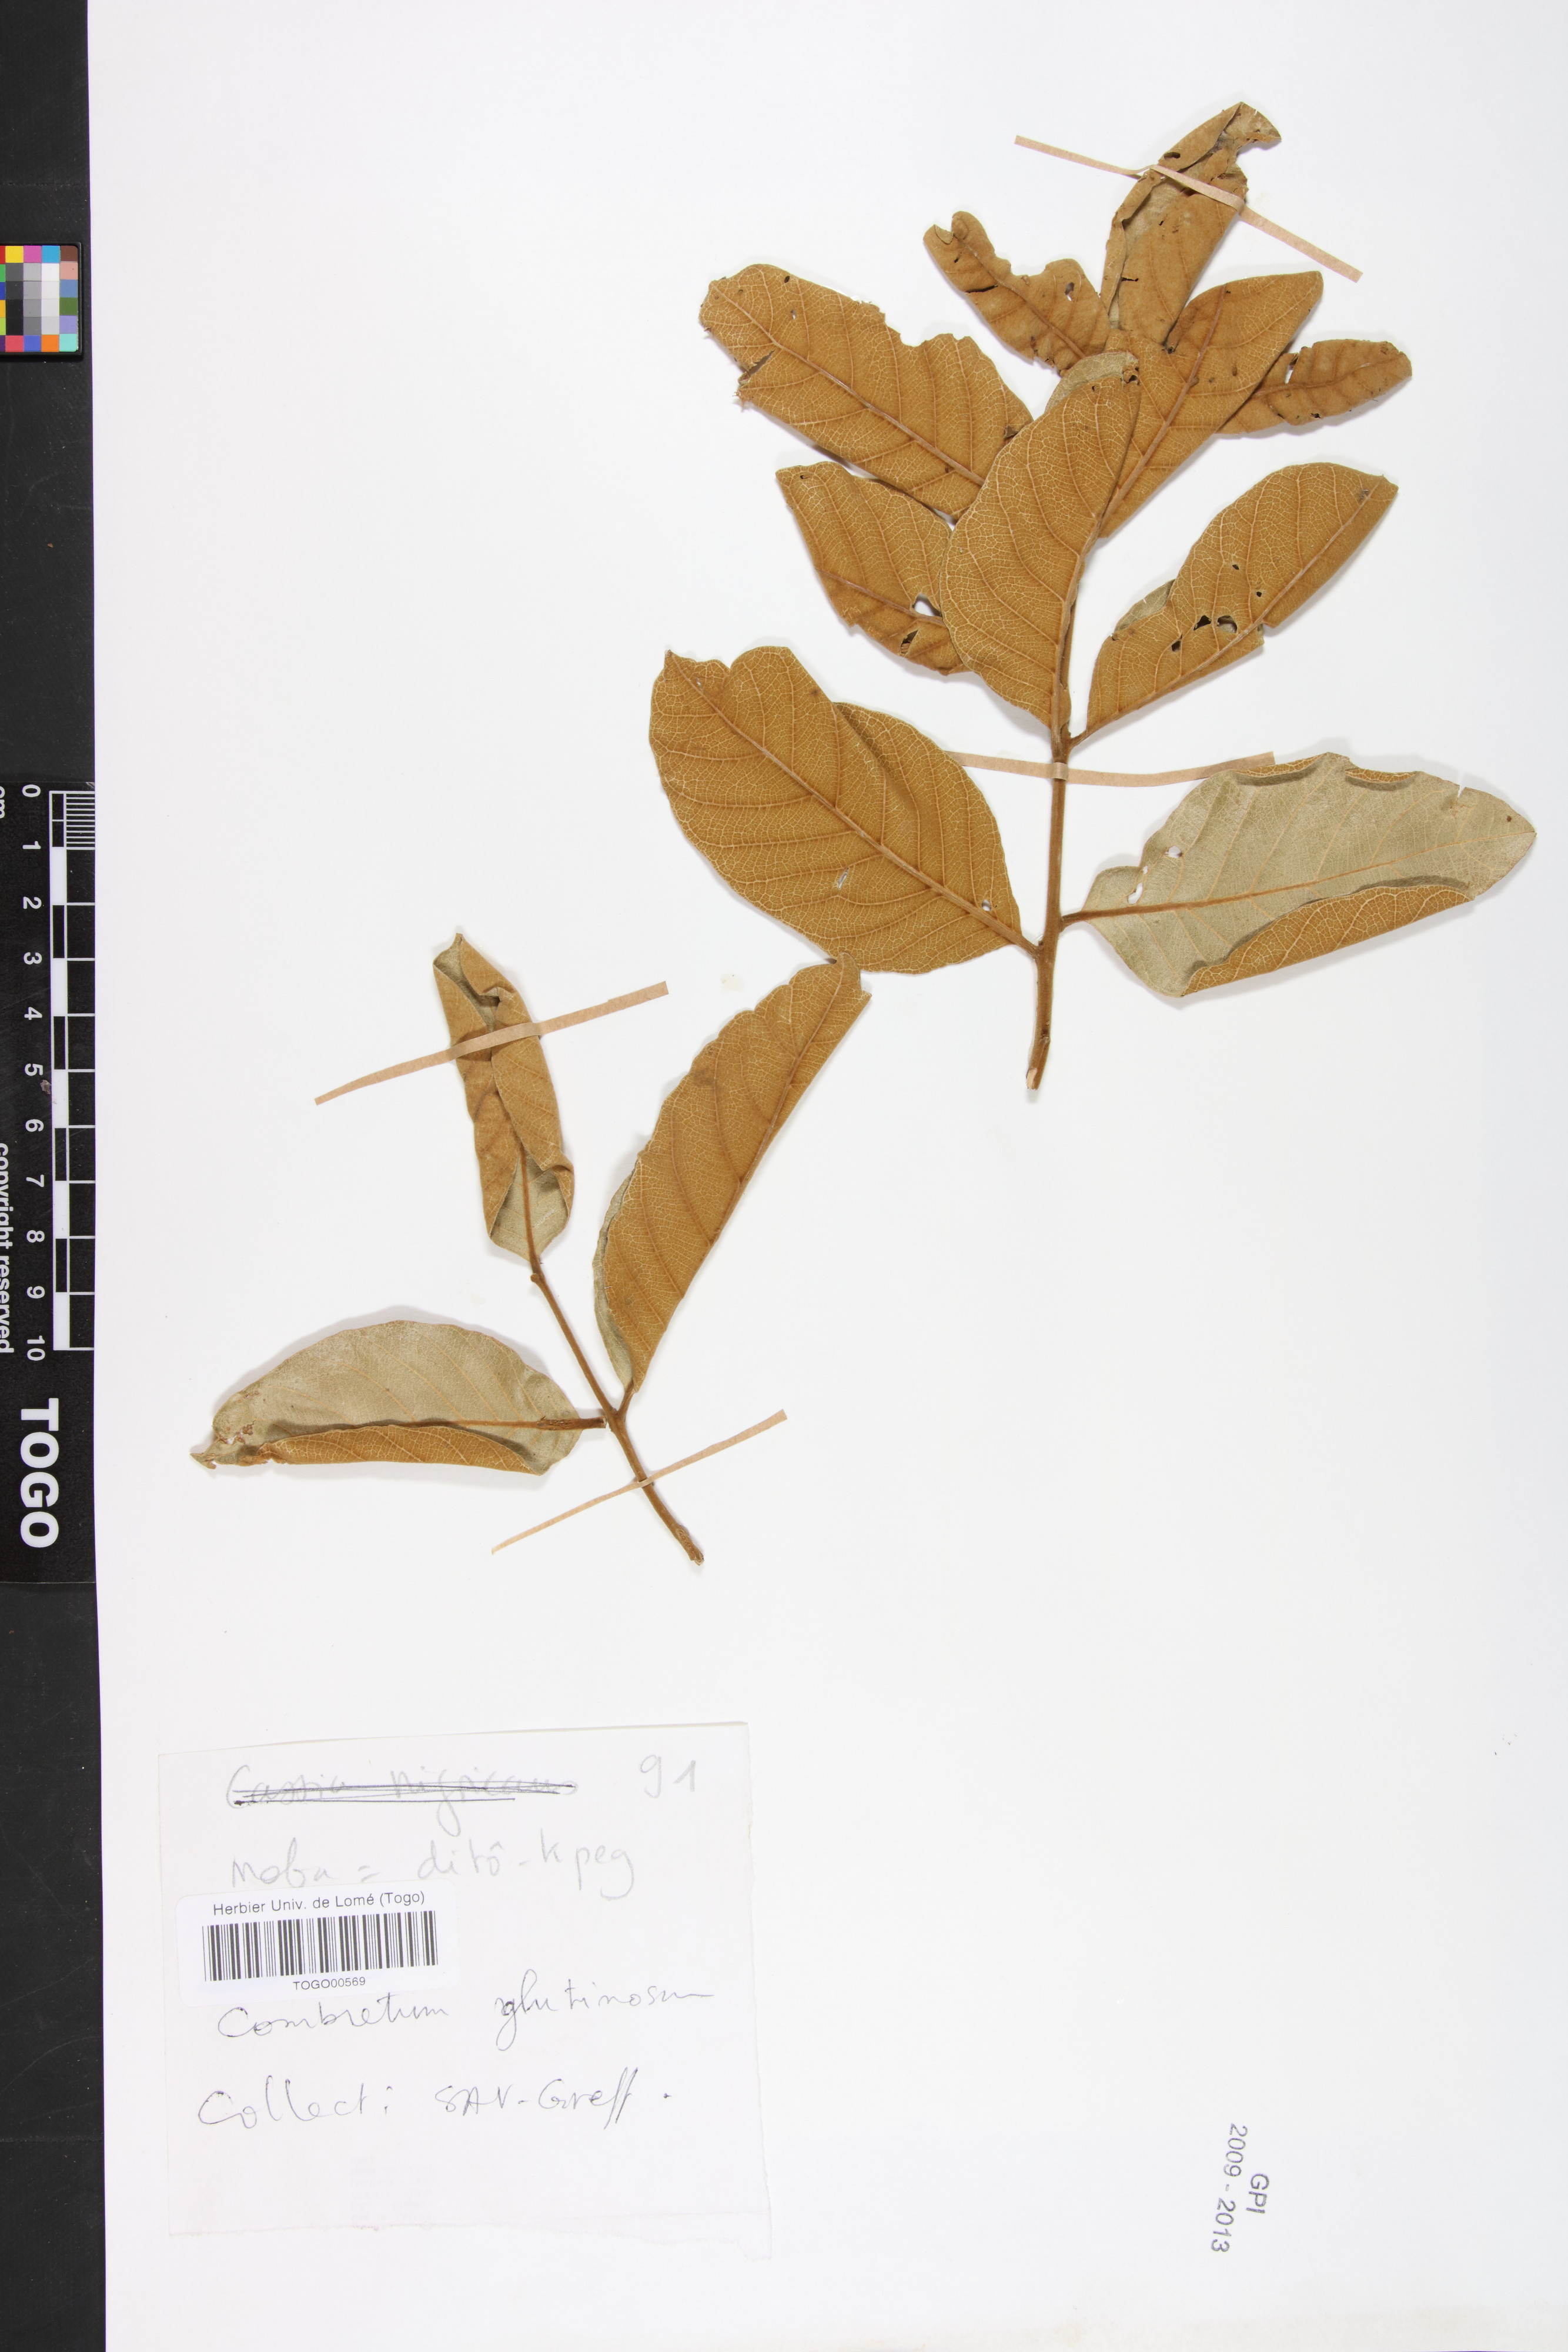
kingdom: Plantae
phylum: Tracheophyta
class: Magnoliopsida
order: Myrtales
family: Combretaceae
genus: Combretum
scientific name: Combretum glutinosum
